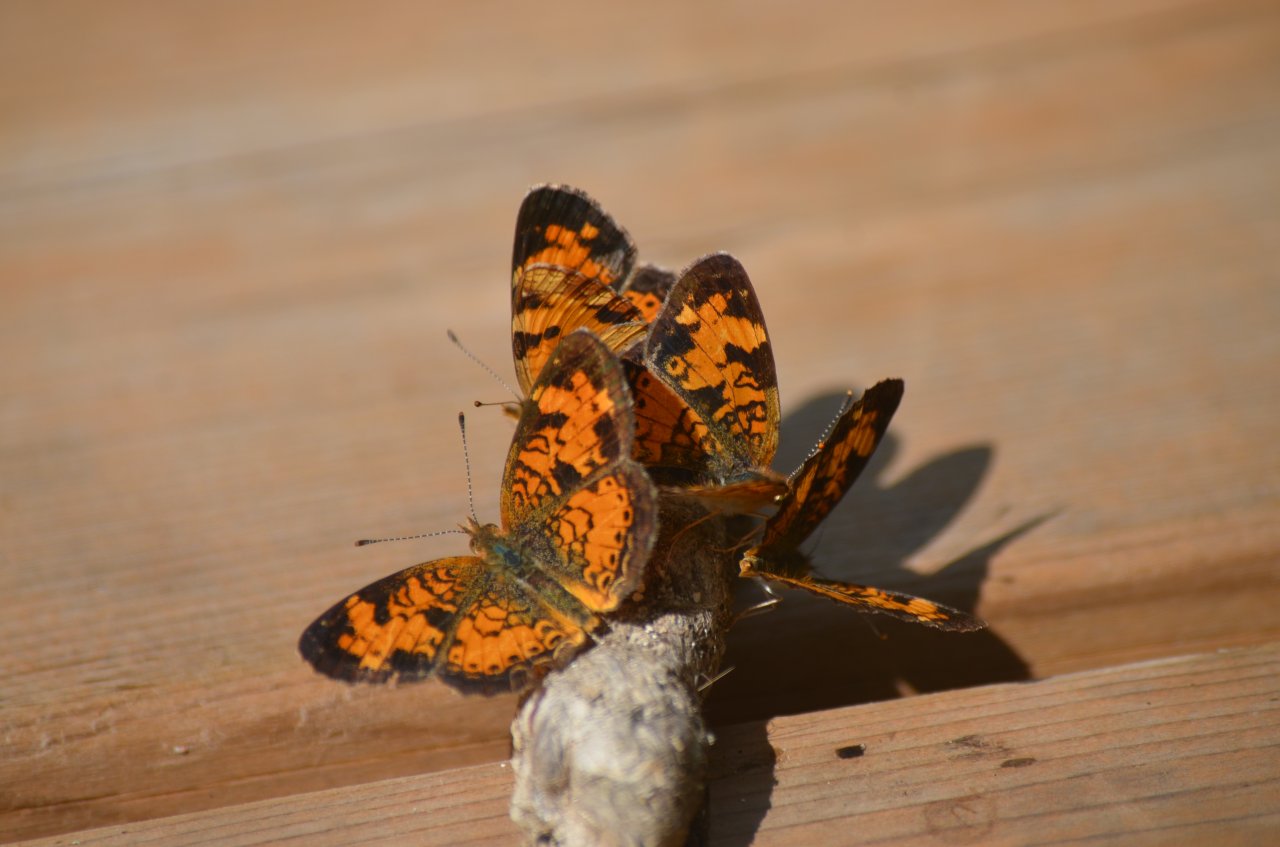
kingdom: Animalia
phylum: Arthropoda
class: Insecta
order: Lepidoptera
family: Nymphalidae
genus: Phyciodes
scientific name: Phyciodes tharos
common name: Northern Crescent
